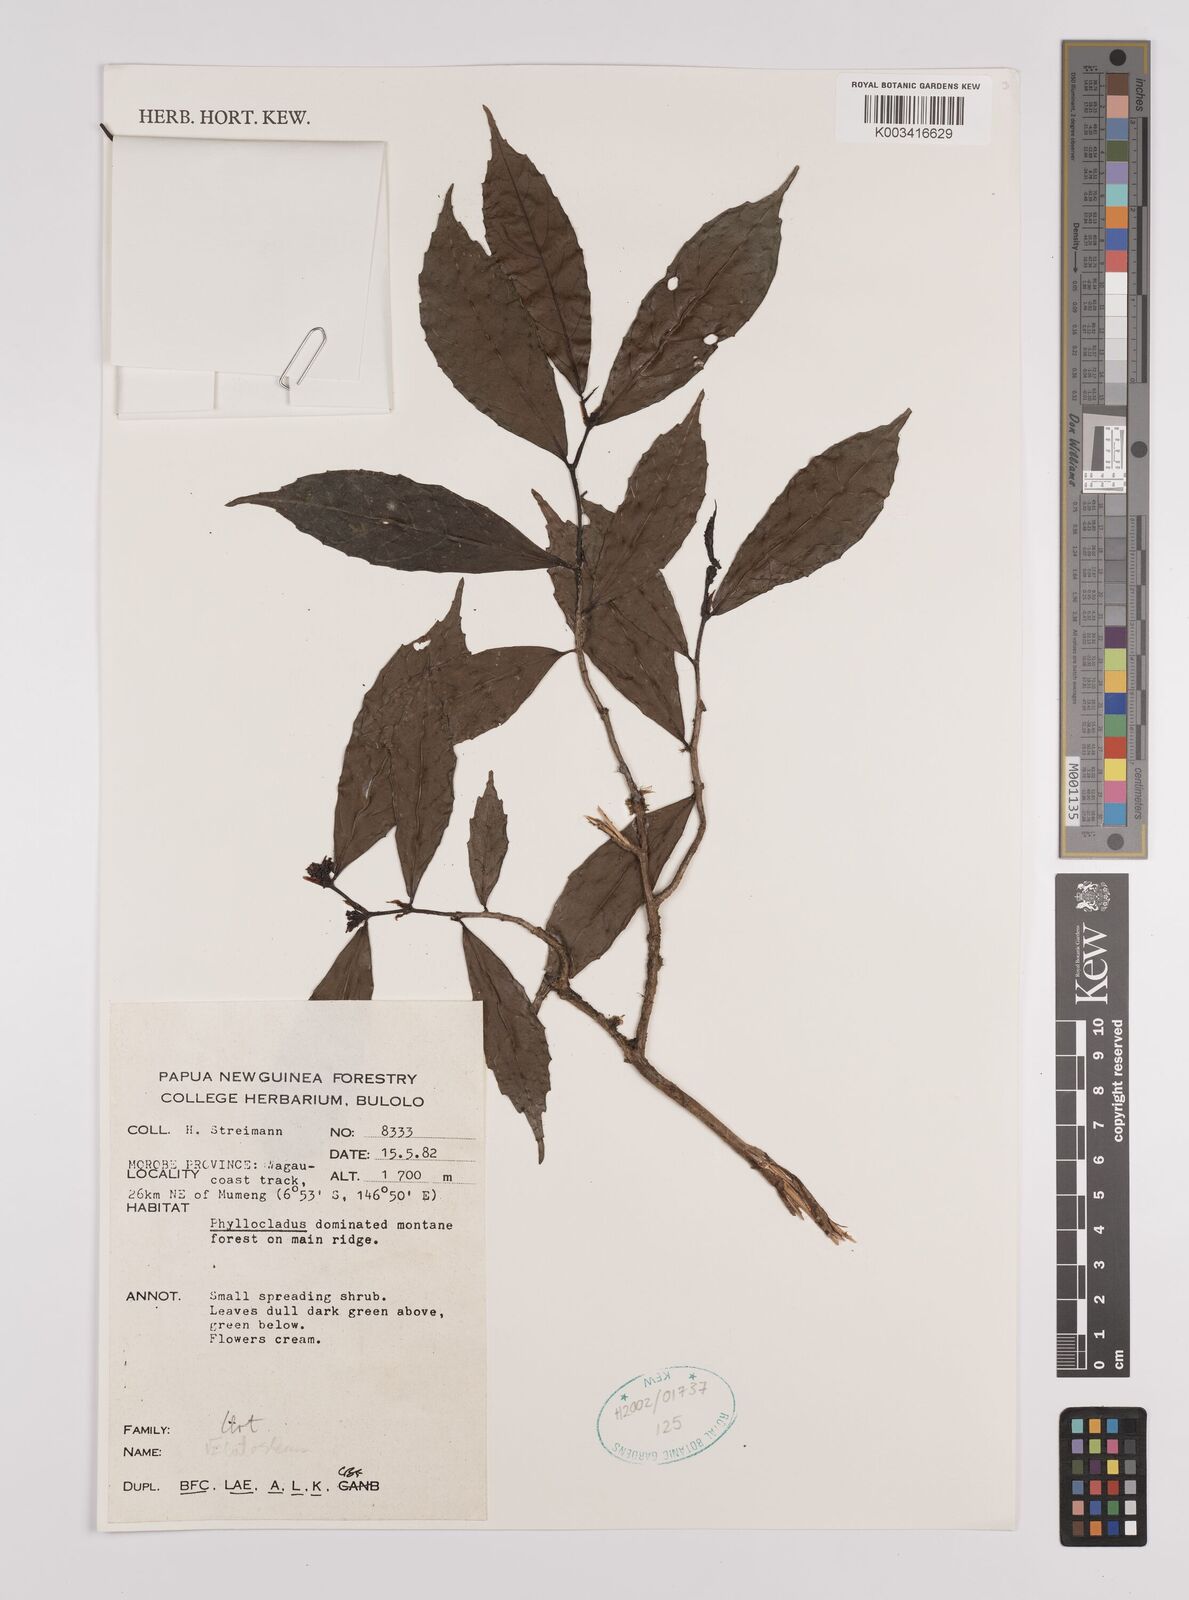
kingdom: Plantae
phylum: Tracheophyta
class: Magnoliopsida
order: Rosales
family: Urticaceae
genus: Elatostema
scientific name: Elatostema
